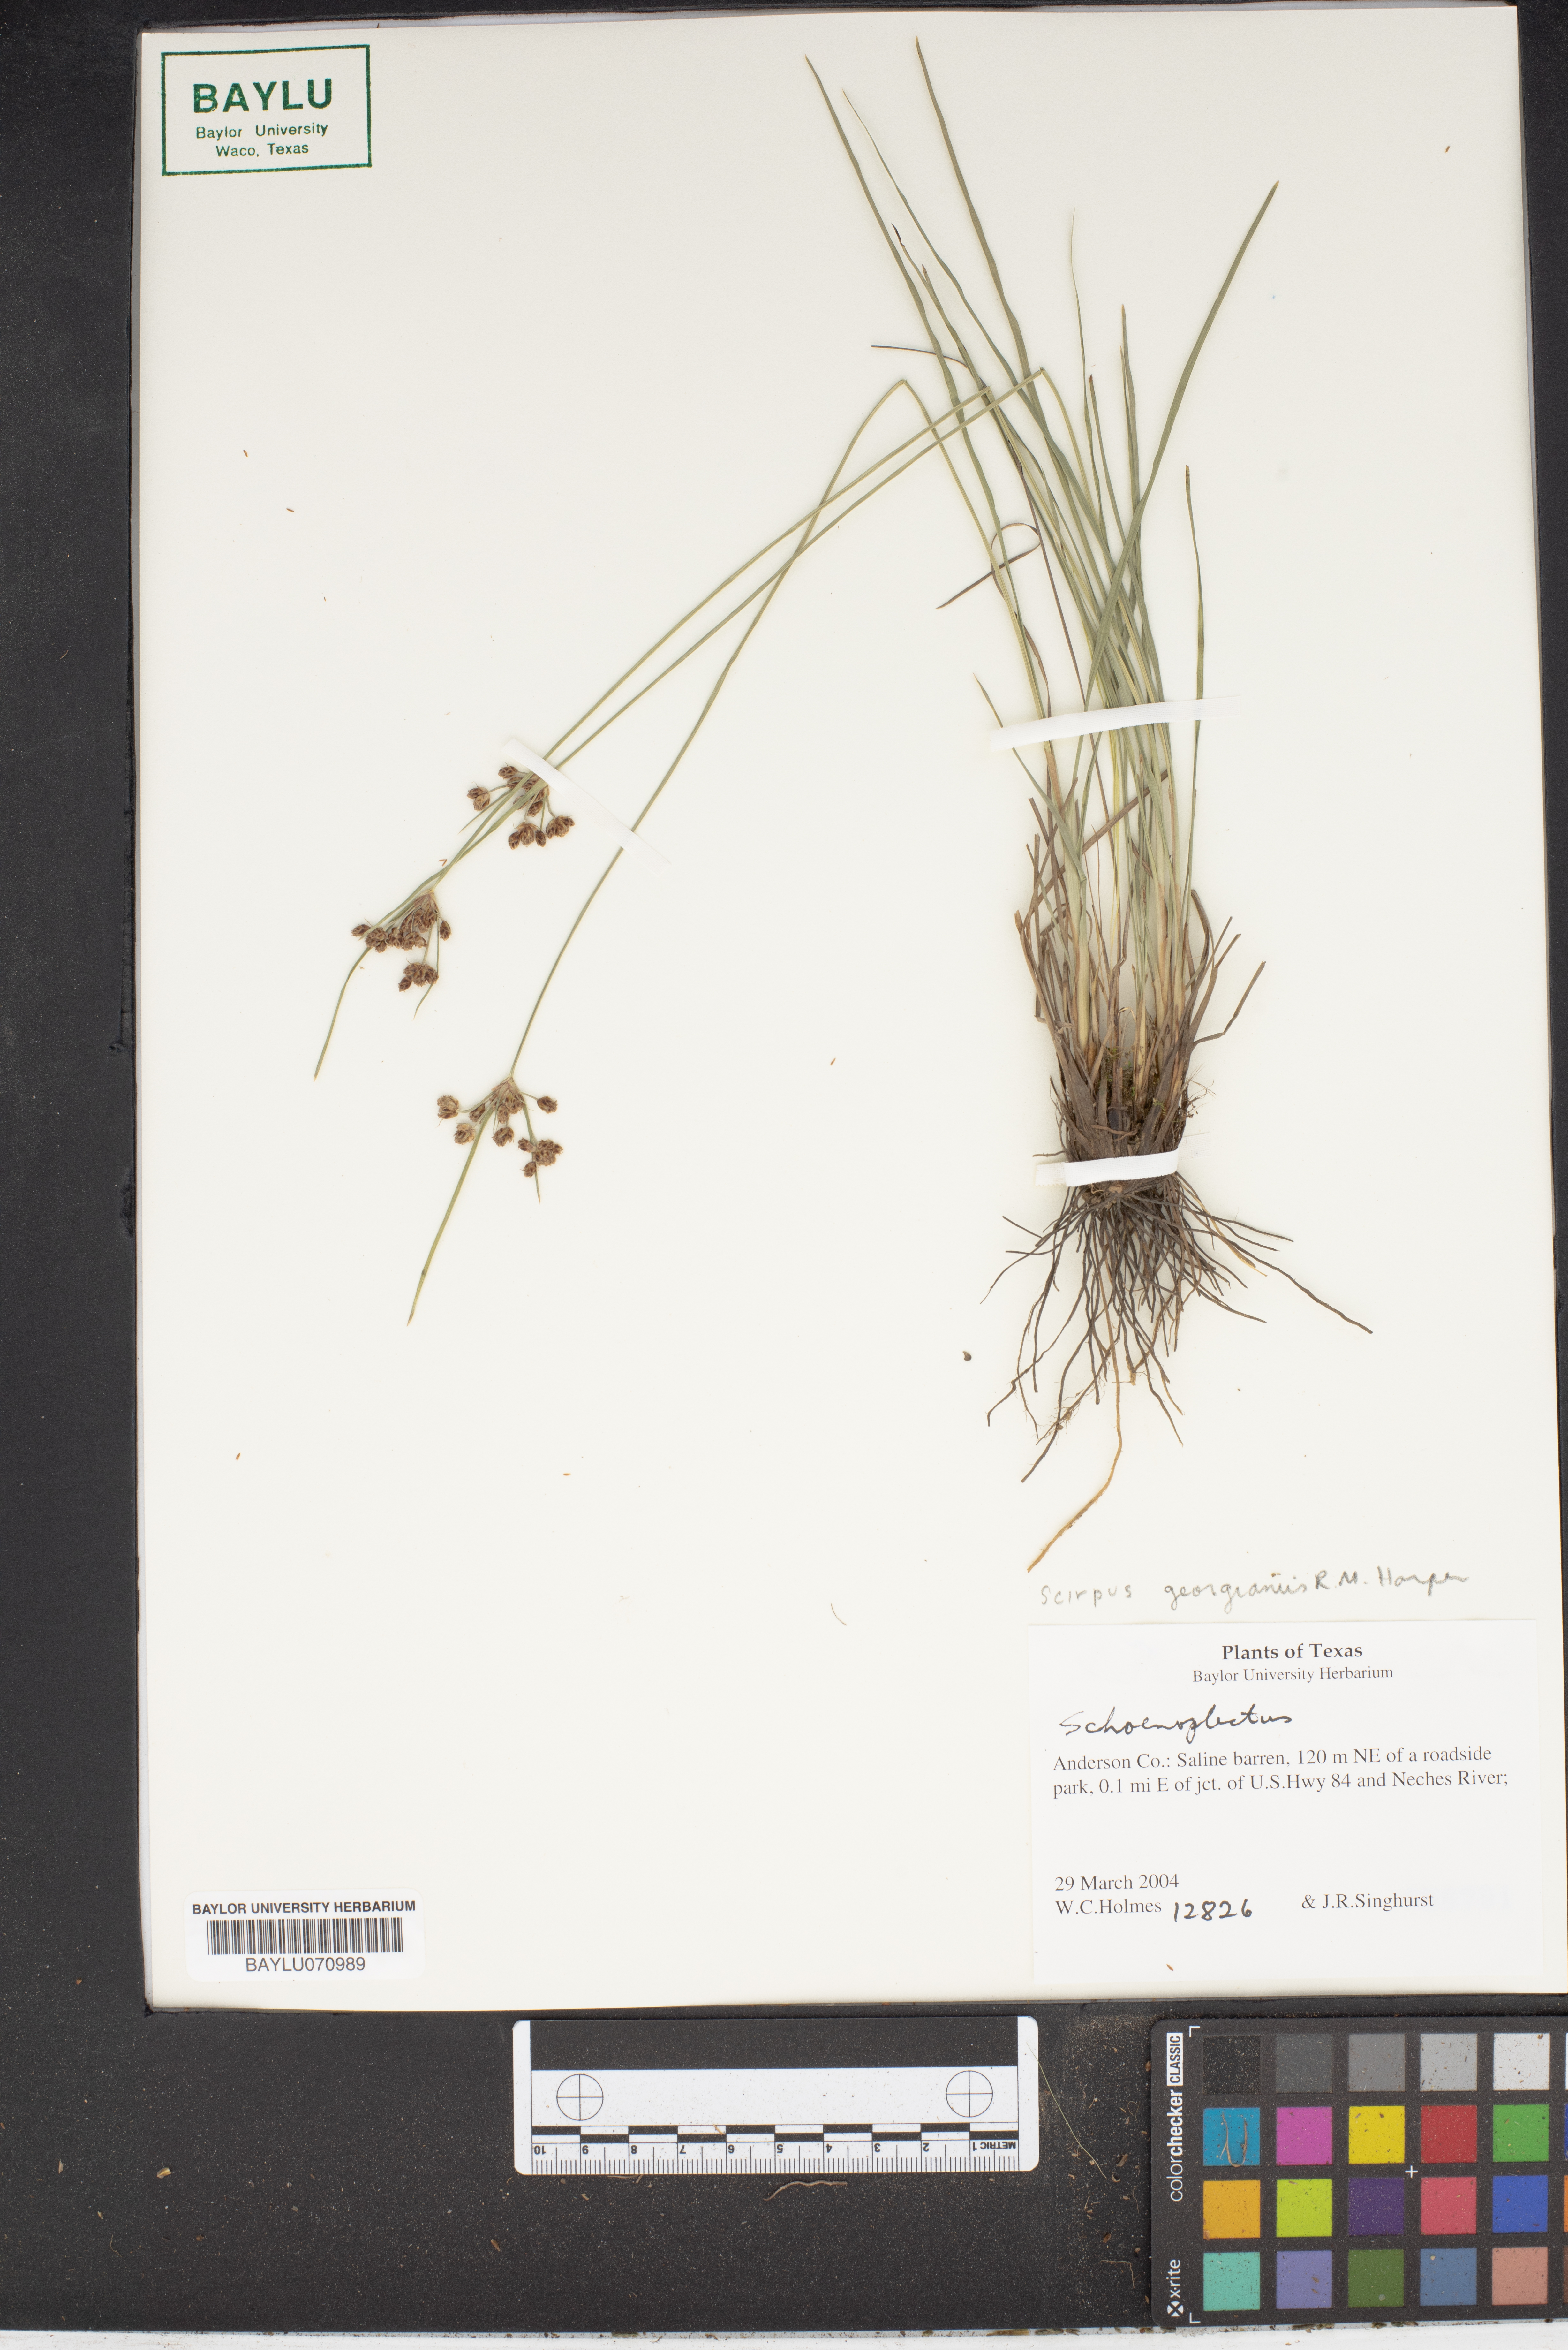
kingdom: Plantae
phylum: Tracheophyta
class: Liliopsida
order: Poales
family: Cyperaceae
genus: Scirpus
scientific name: Scirpus georgianus
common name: Bristleless dark-green bulrush
